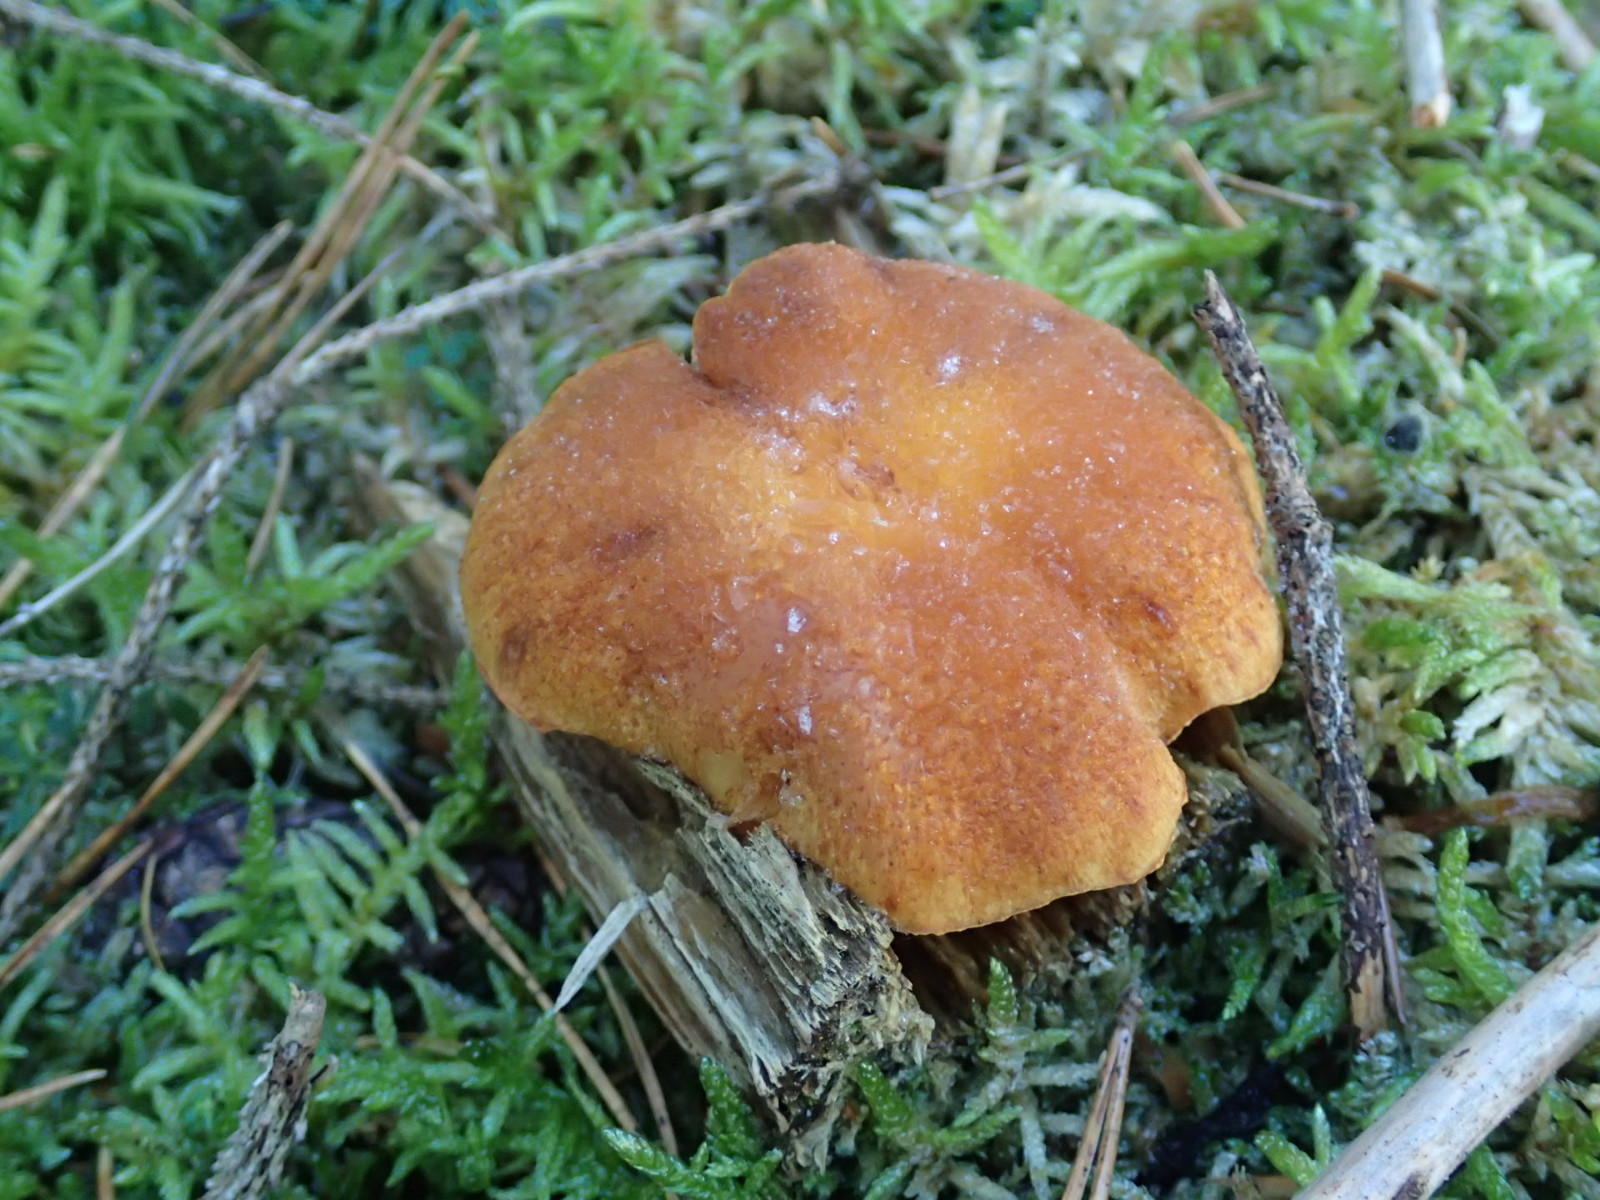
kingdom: Fungi
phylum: Basidiomycota
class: Agaricomycetes
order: Agaricales
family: Hymenogastraceae
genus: Gymnopilus
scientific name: Gymnopilus penetrans
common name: plettet flammehat
